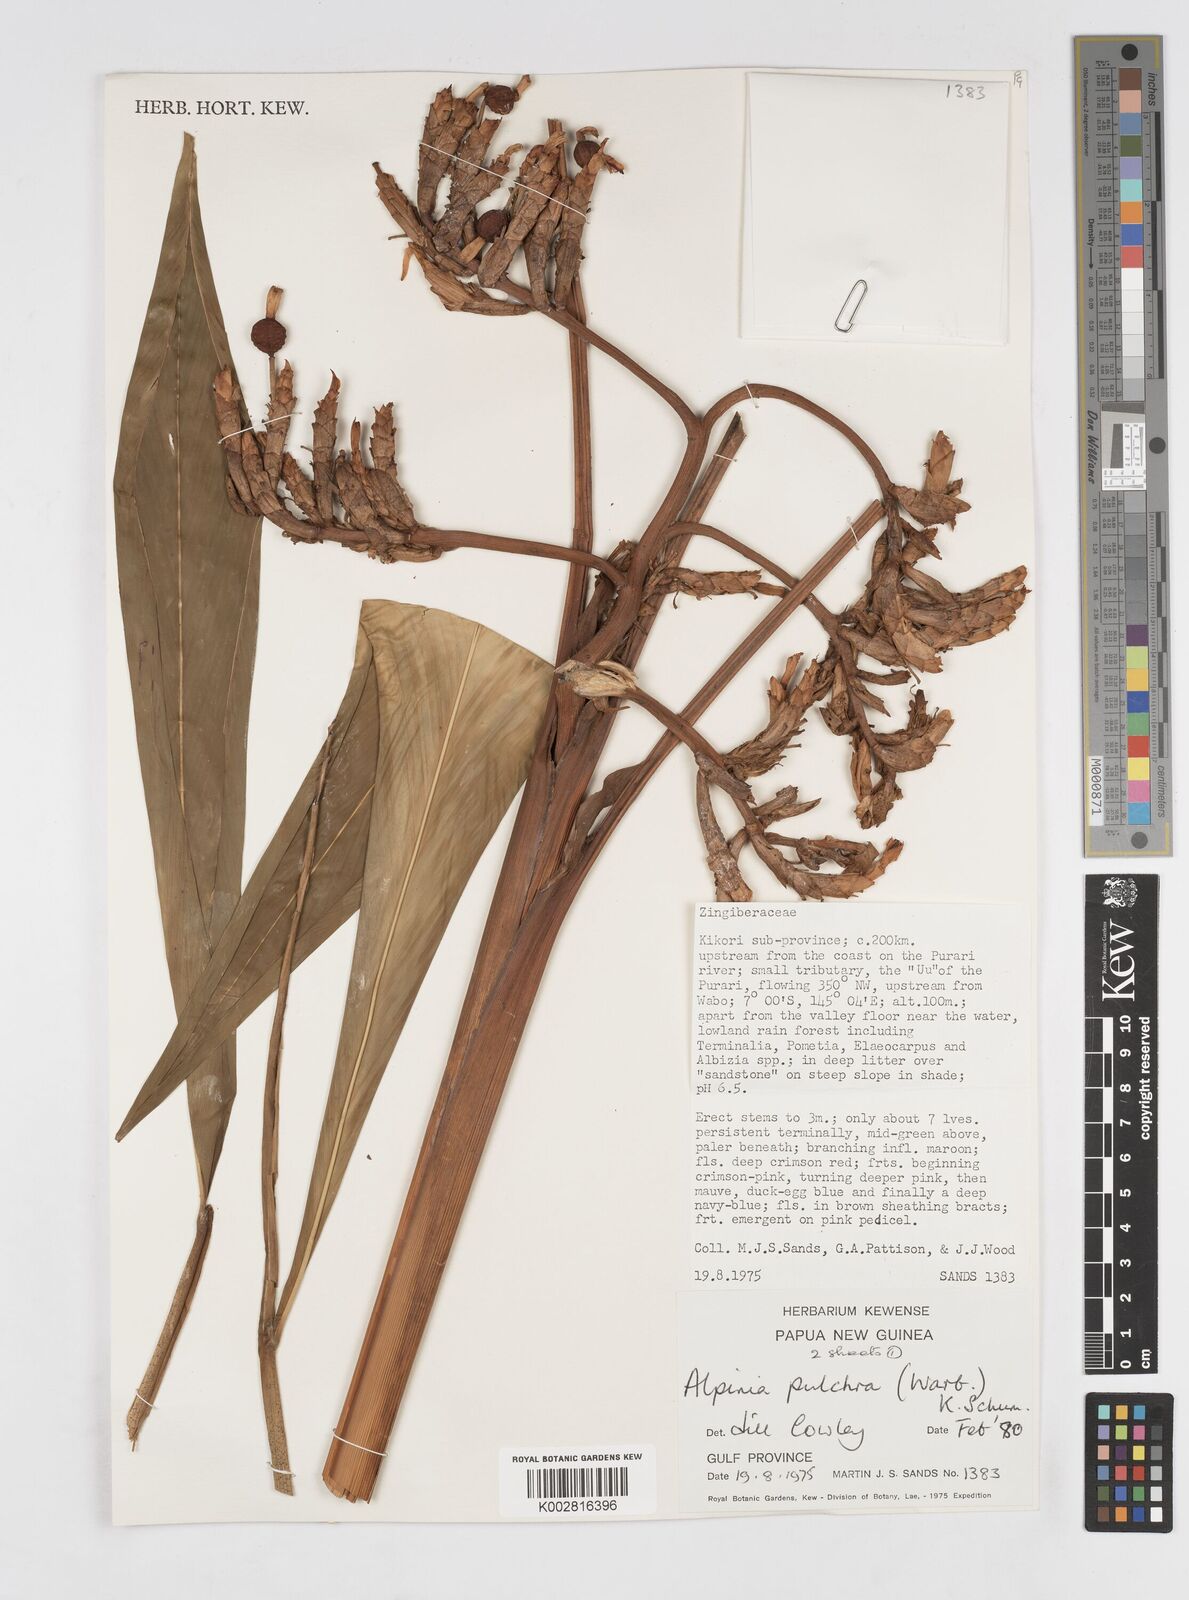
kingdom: Plantae
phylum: Tracheophyta
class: Liliopsida
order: Zingiberales
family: Zingiberaceae
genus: Alpinia
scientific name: Alpinia pulchra
